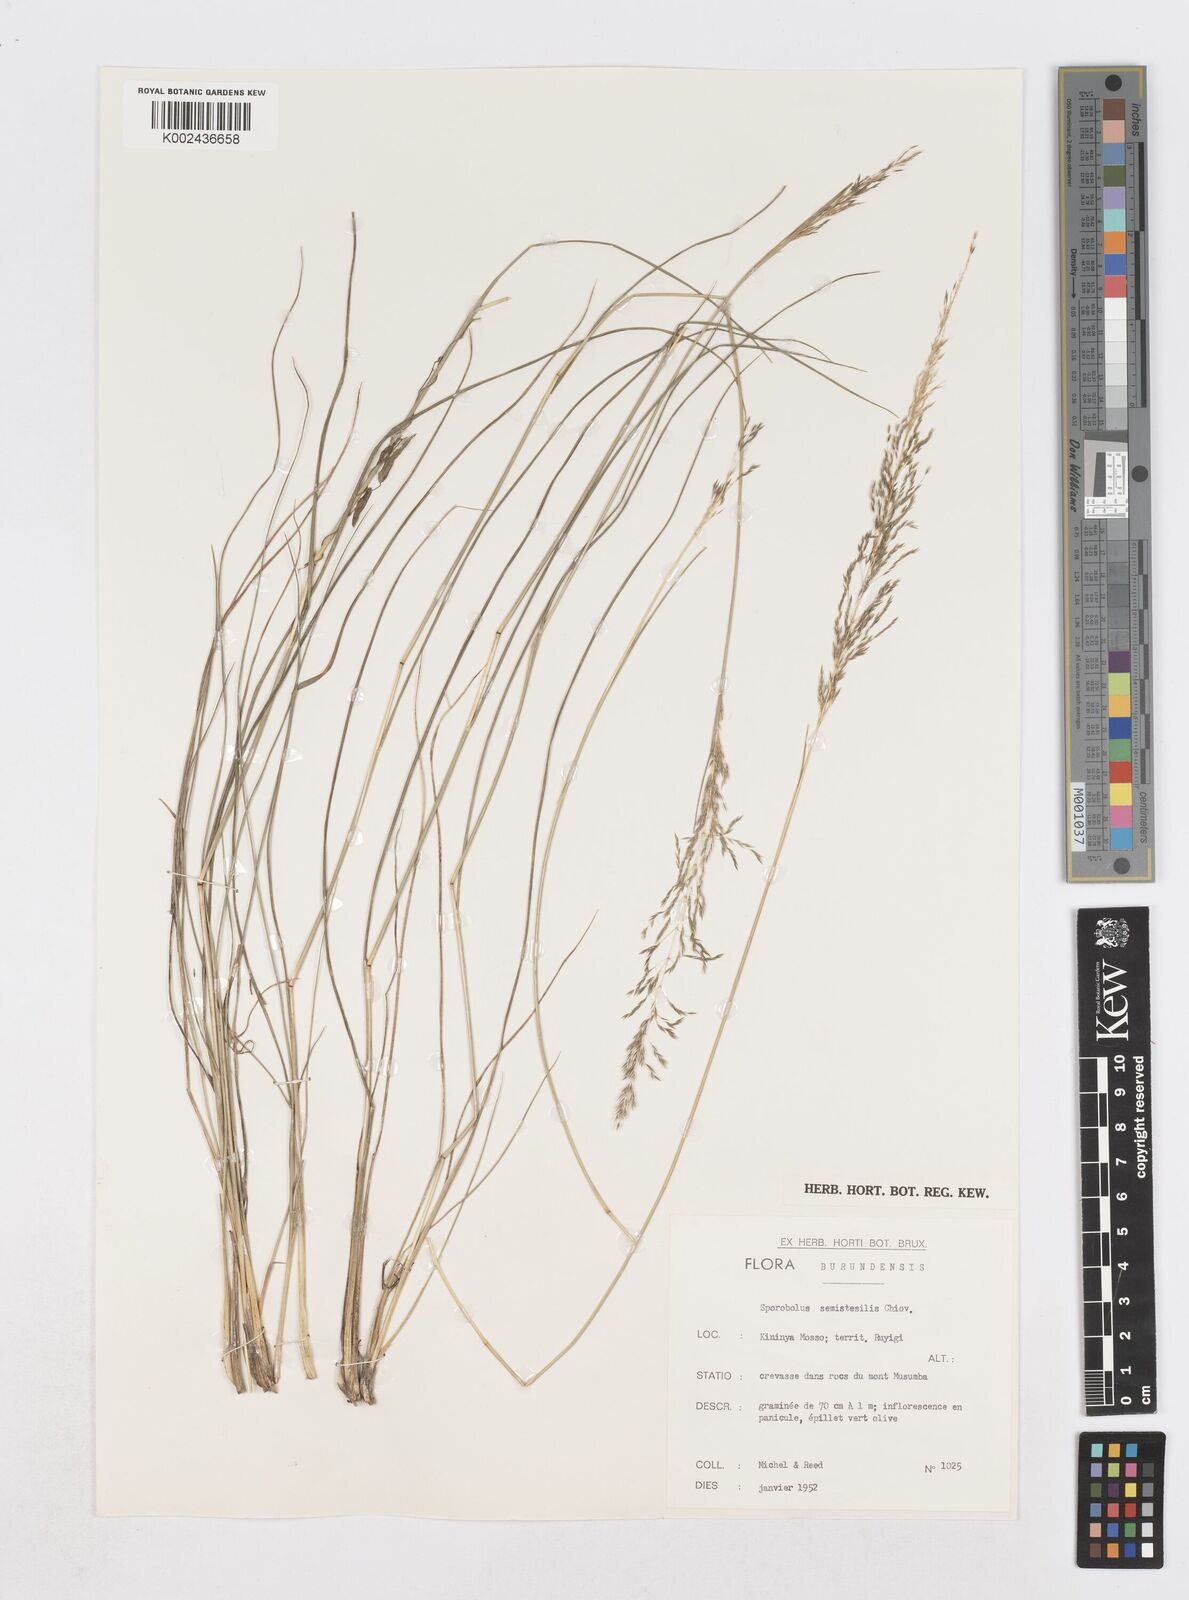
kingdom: Plantae
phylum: Tracheophyta
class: Liliopsida
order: Poales
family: Poaceae
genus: Sporobolus
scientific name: Sporobolus sanguineus
